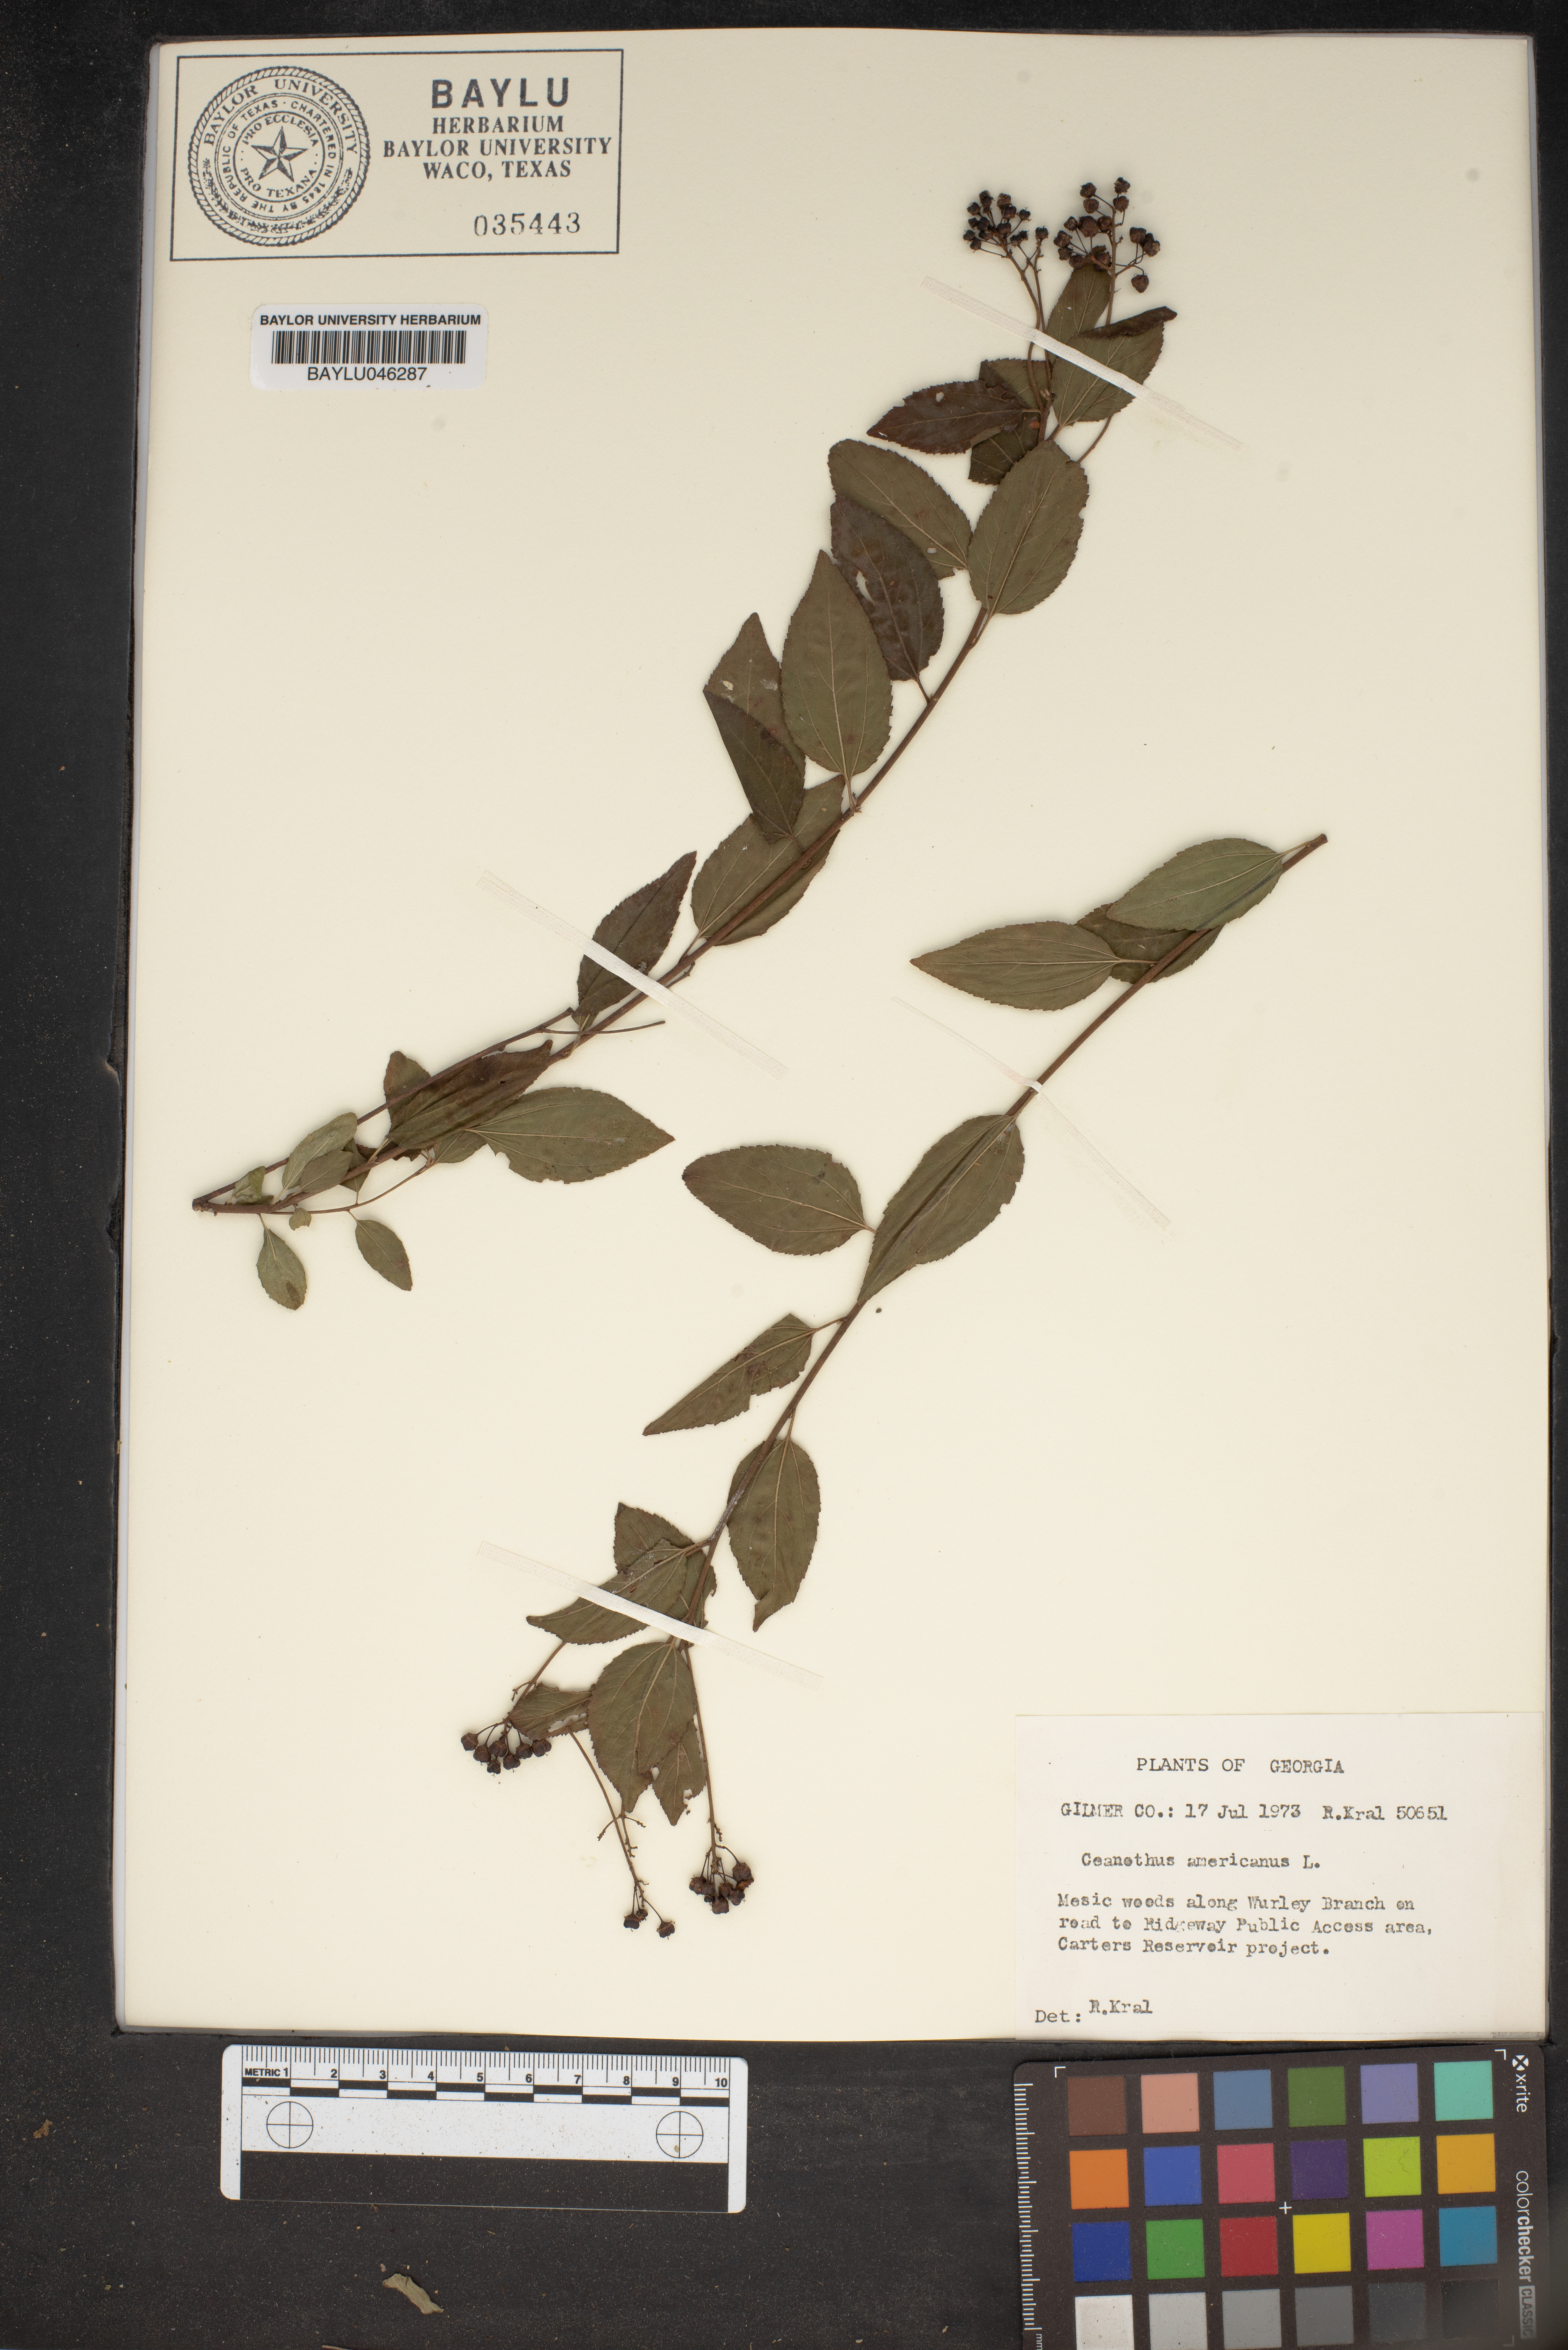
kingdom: Plantae
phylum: Tracheophyta
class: Magnoliopsida
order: Rosales
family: Rhamnaceae
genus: Ceanothus
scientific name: Ceanothus americanus
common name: Redroot
